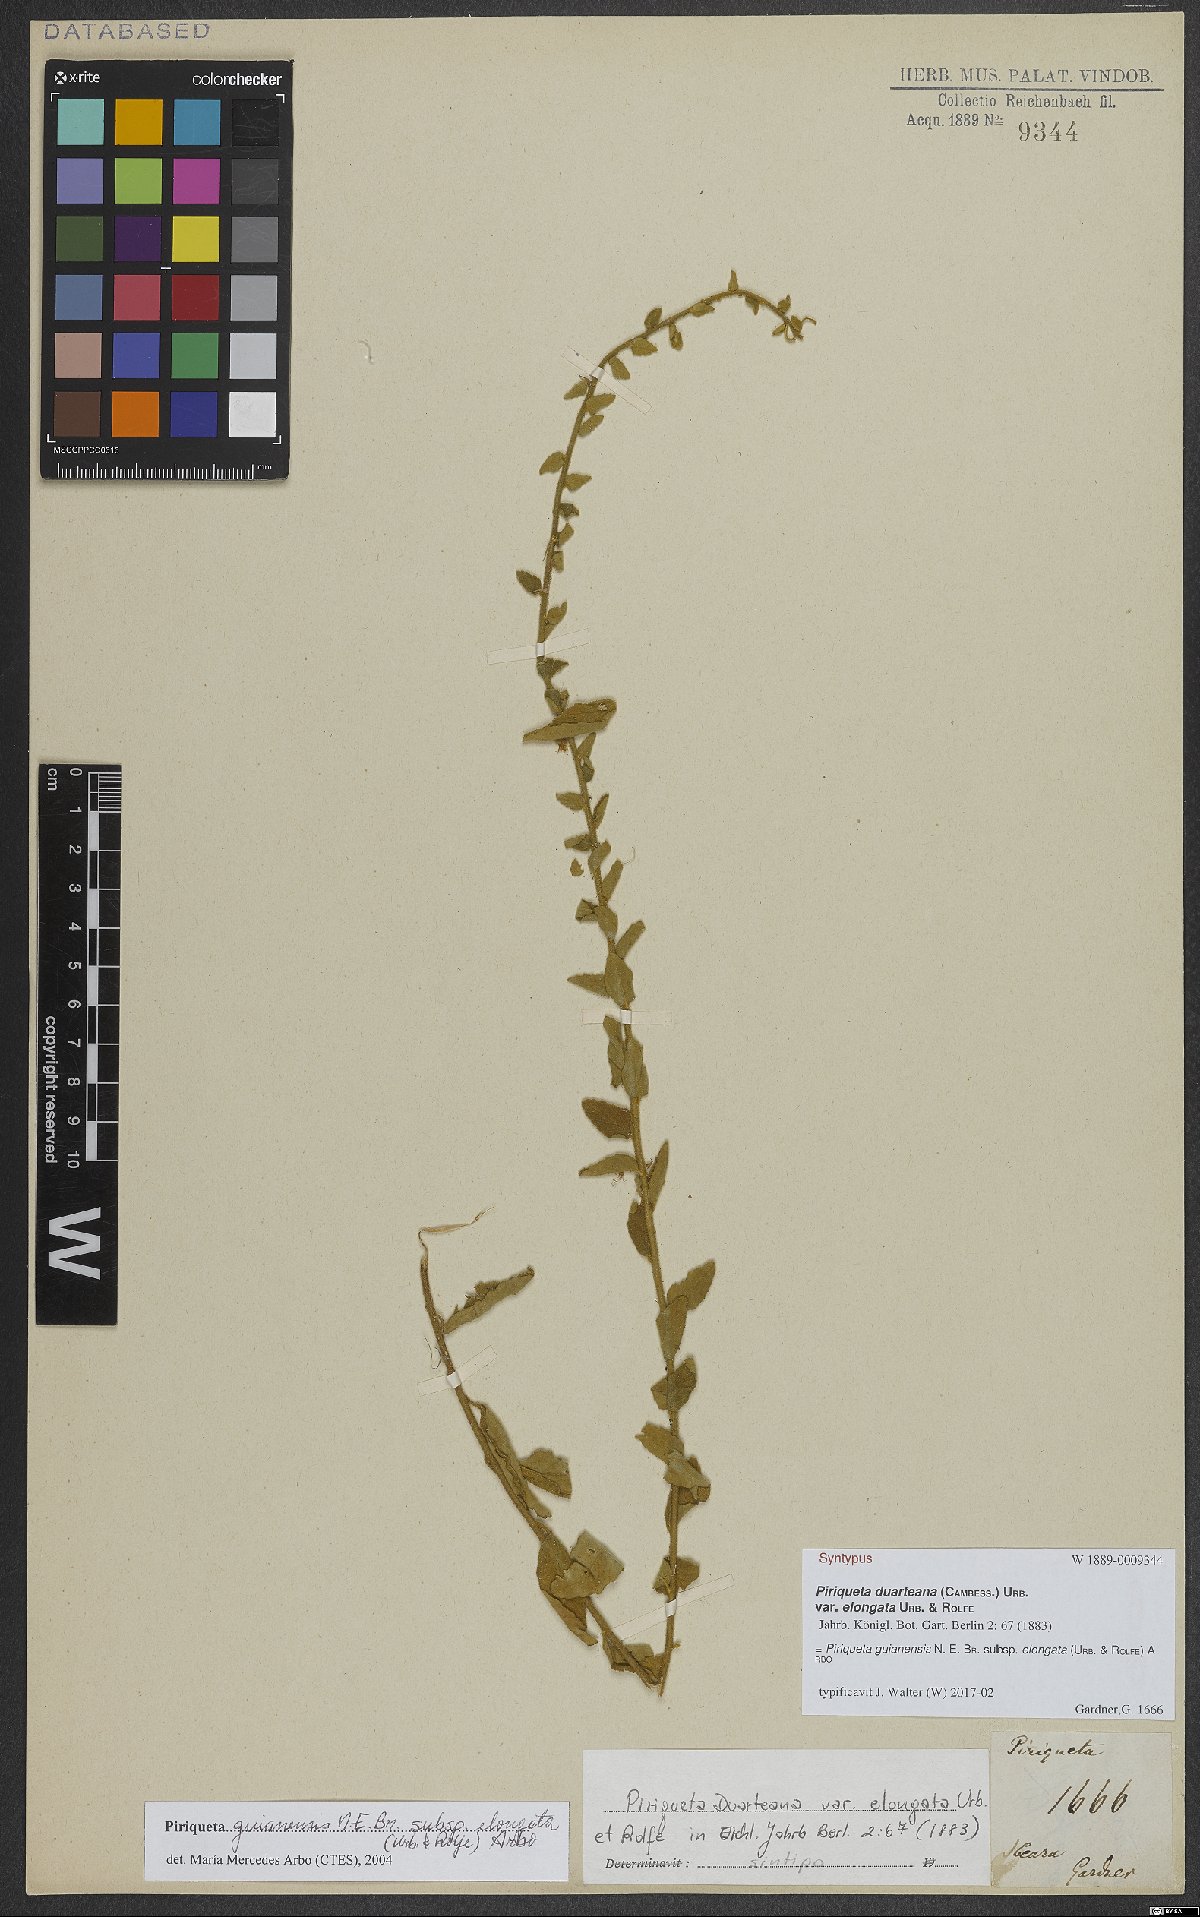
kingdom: Plantae
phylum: Tracheophyta
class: Magnoliopsida
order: Malpighiales
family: Turneraceae
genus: Piriqueta
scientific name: Piriqueta guianensis
